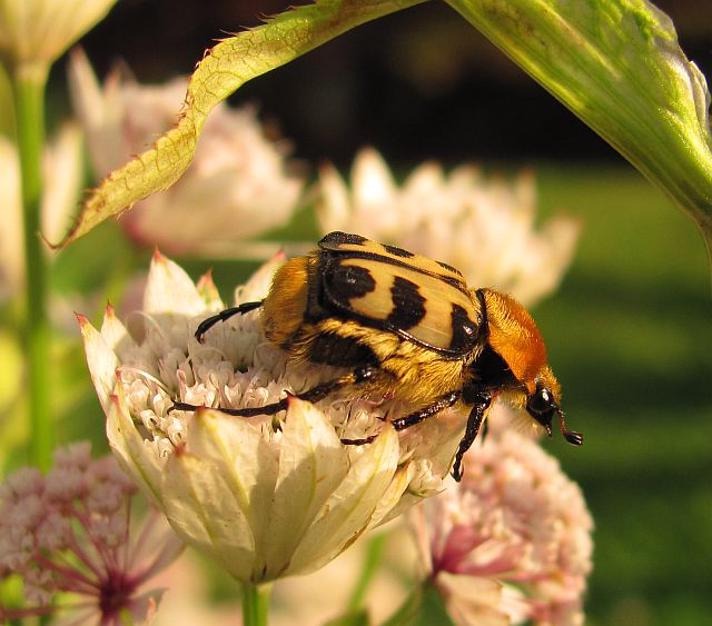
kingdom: Animalia
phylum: Arthropoda
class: Insecta
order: Coleoptera
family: Scarabaeidae
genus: Trichius
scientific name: Trichius gallicus
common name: Lille humlebille
